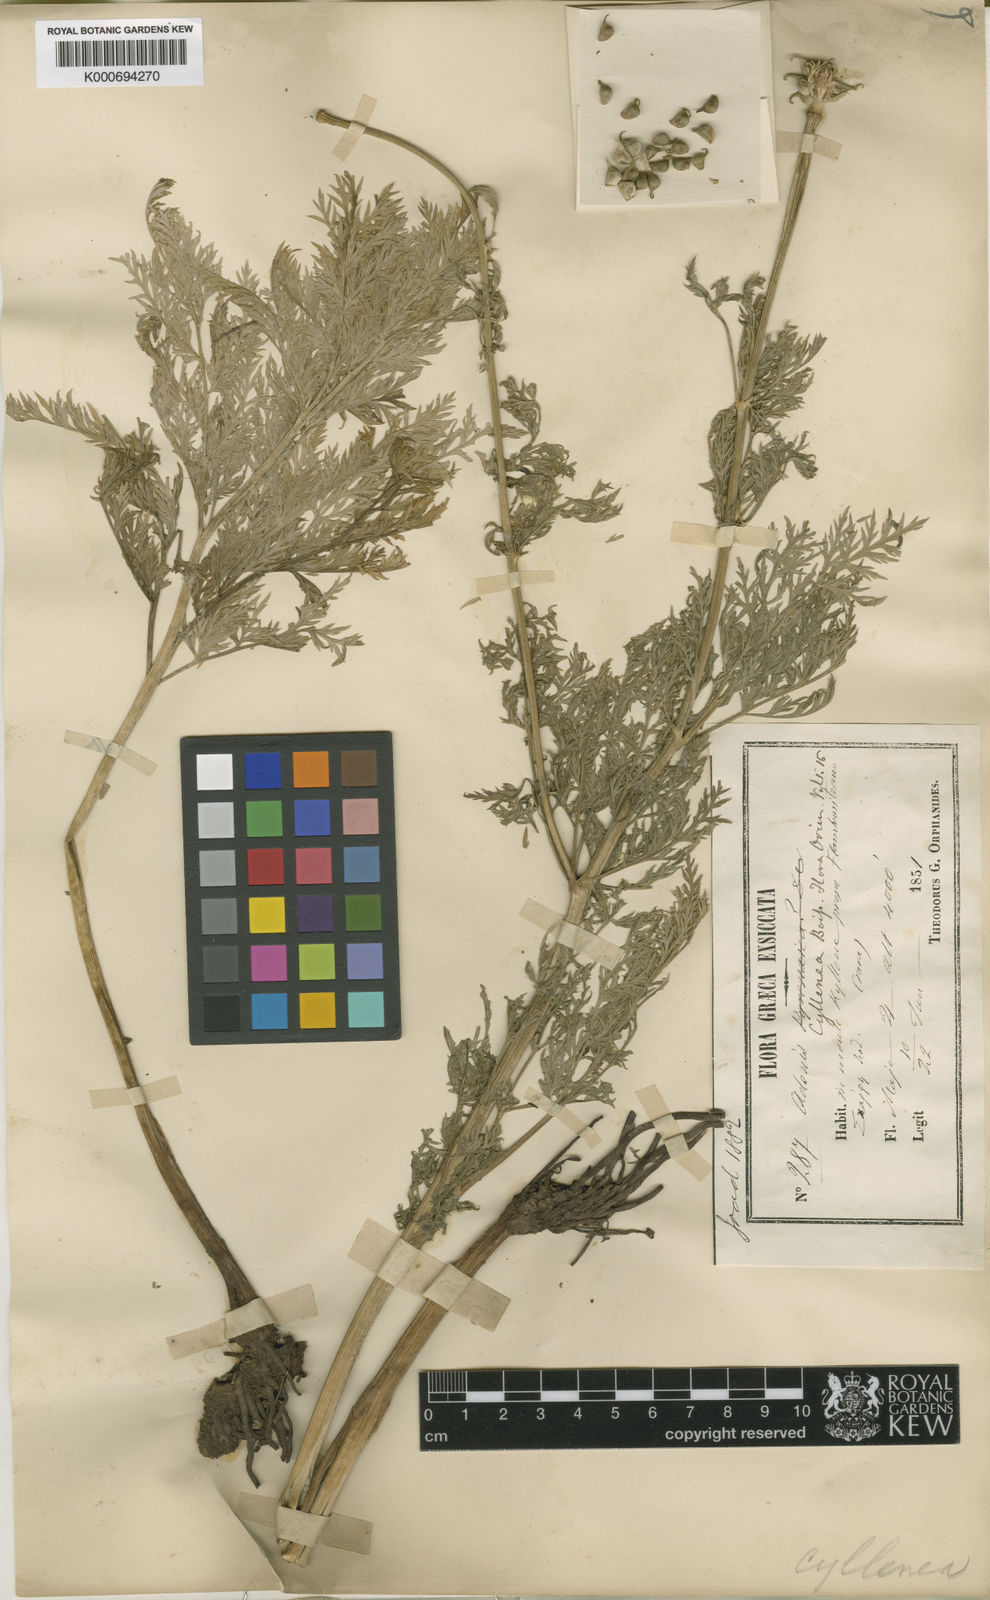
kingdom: Plantae
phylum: Tracheophyta
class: Magnoliopsida
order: Ranunculales
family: Ranunculaceae
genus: Adonis
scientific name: Adonis cyllenea
